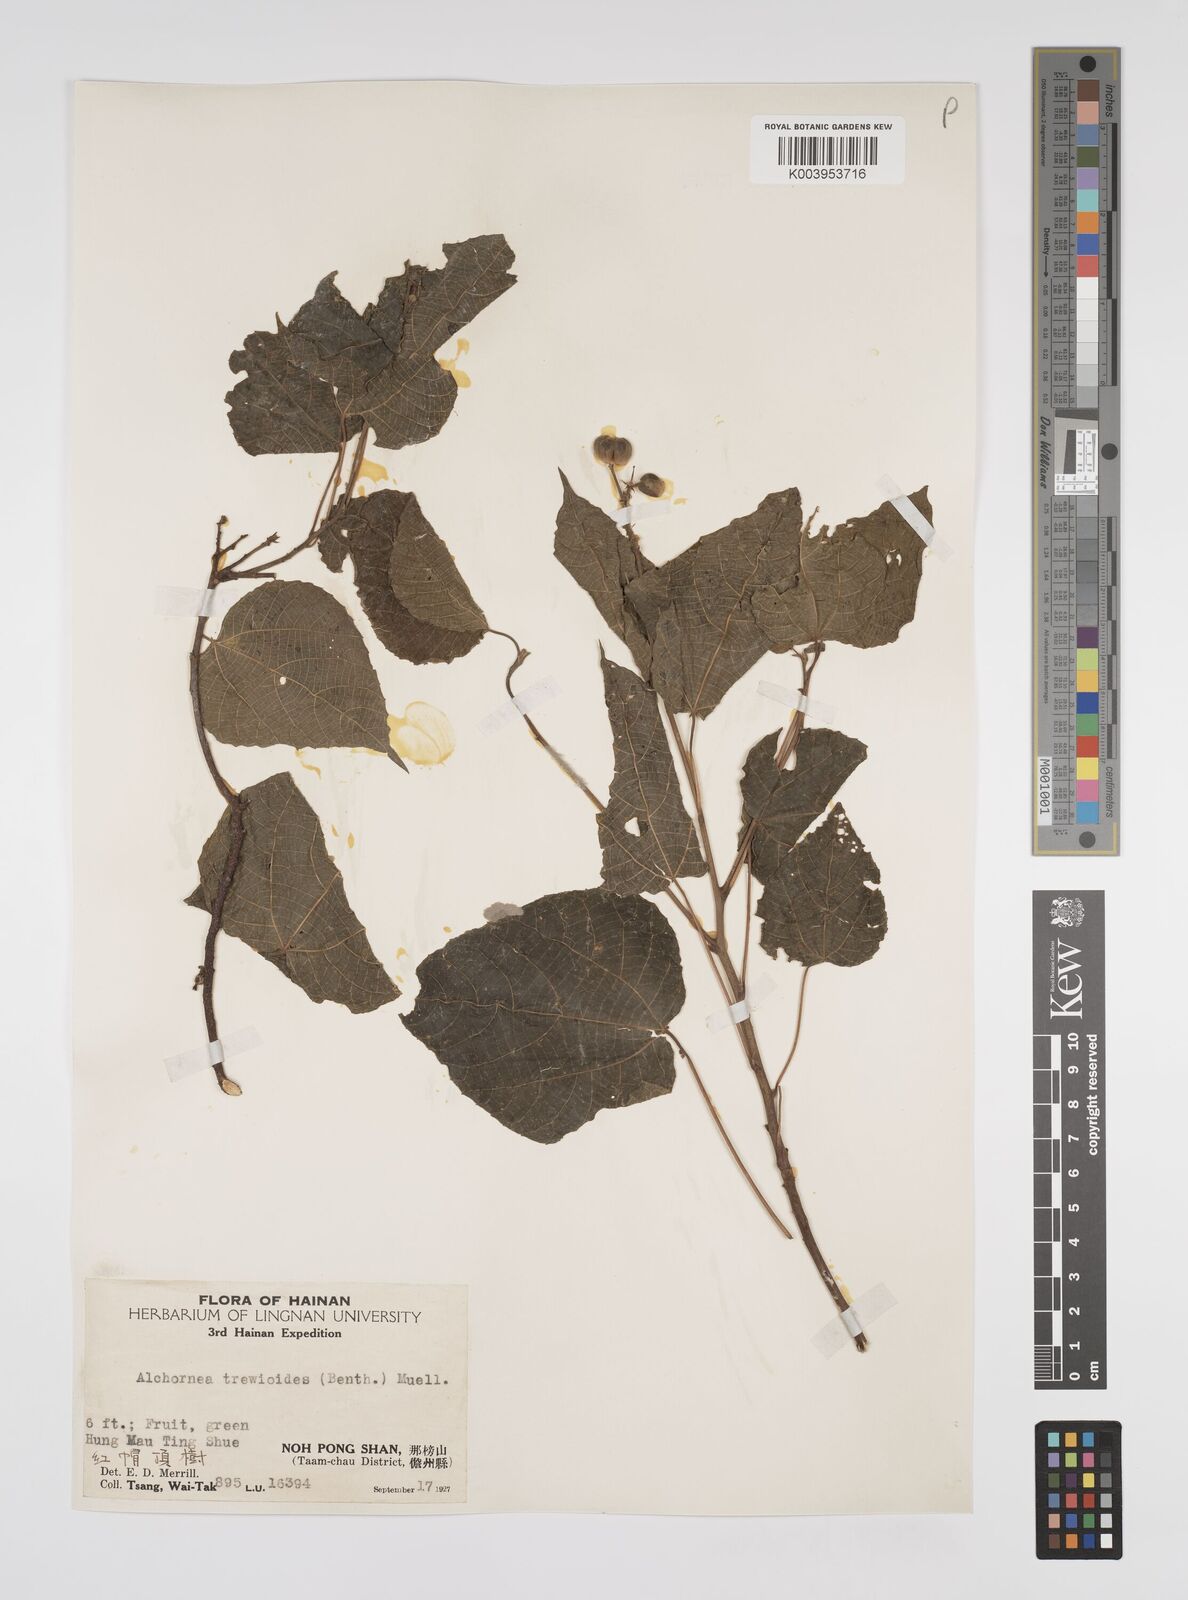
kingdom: Plantae
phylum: Tracheophyta
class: Magnoliopsida
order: Malpighiales
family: Euphorbiaceae
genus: Alchornea
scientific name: Alchornea trewioides
